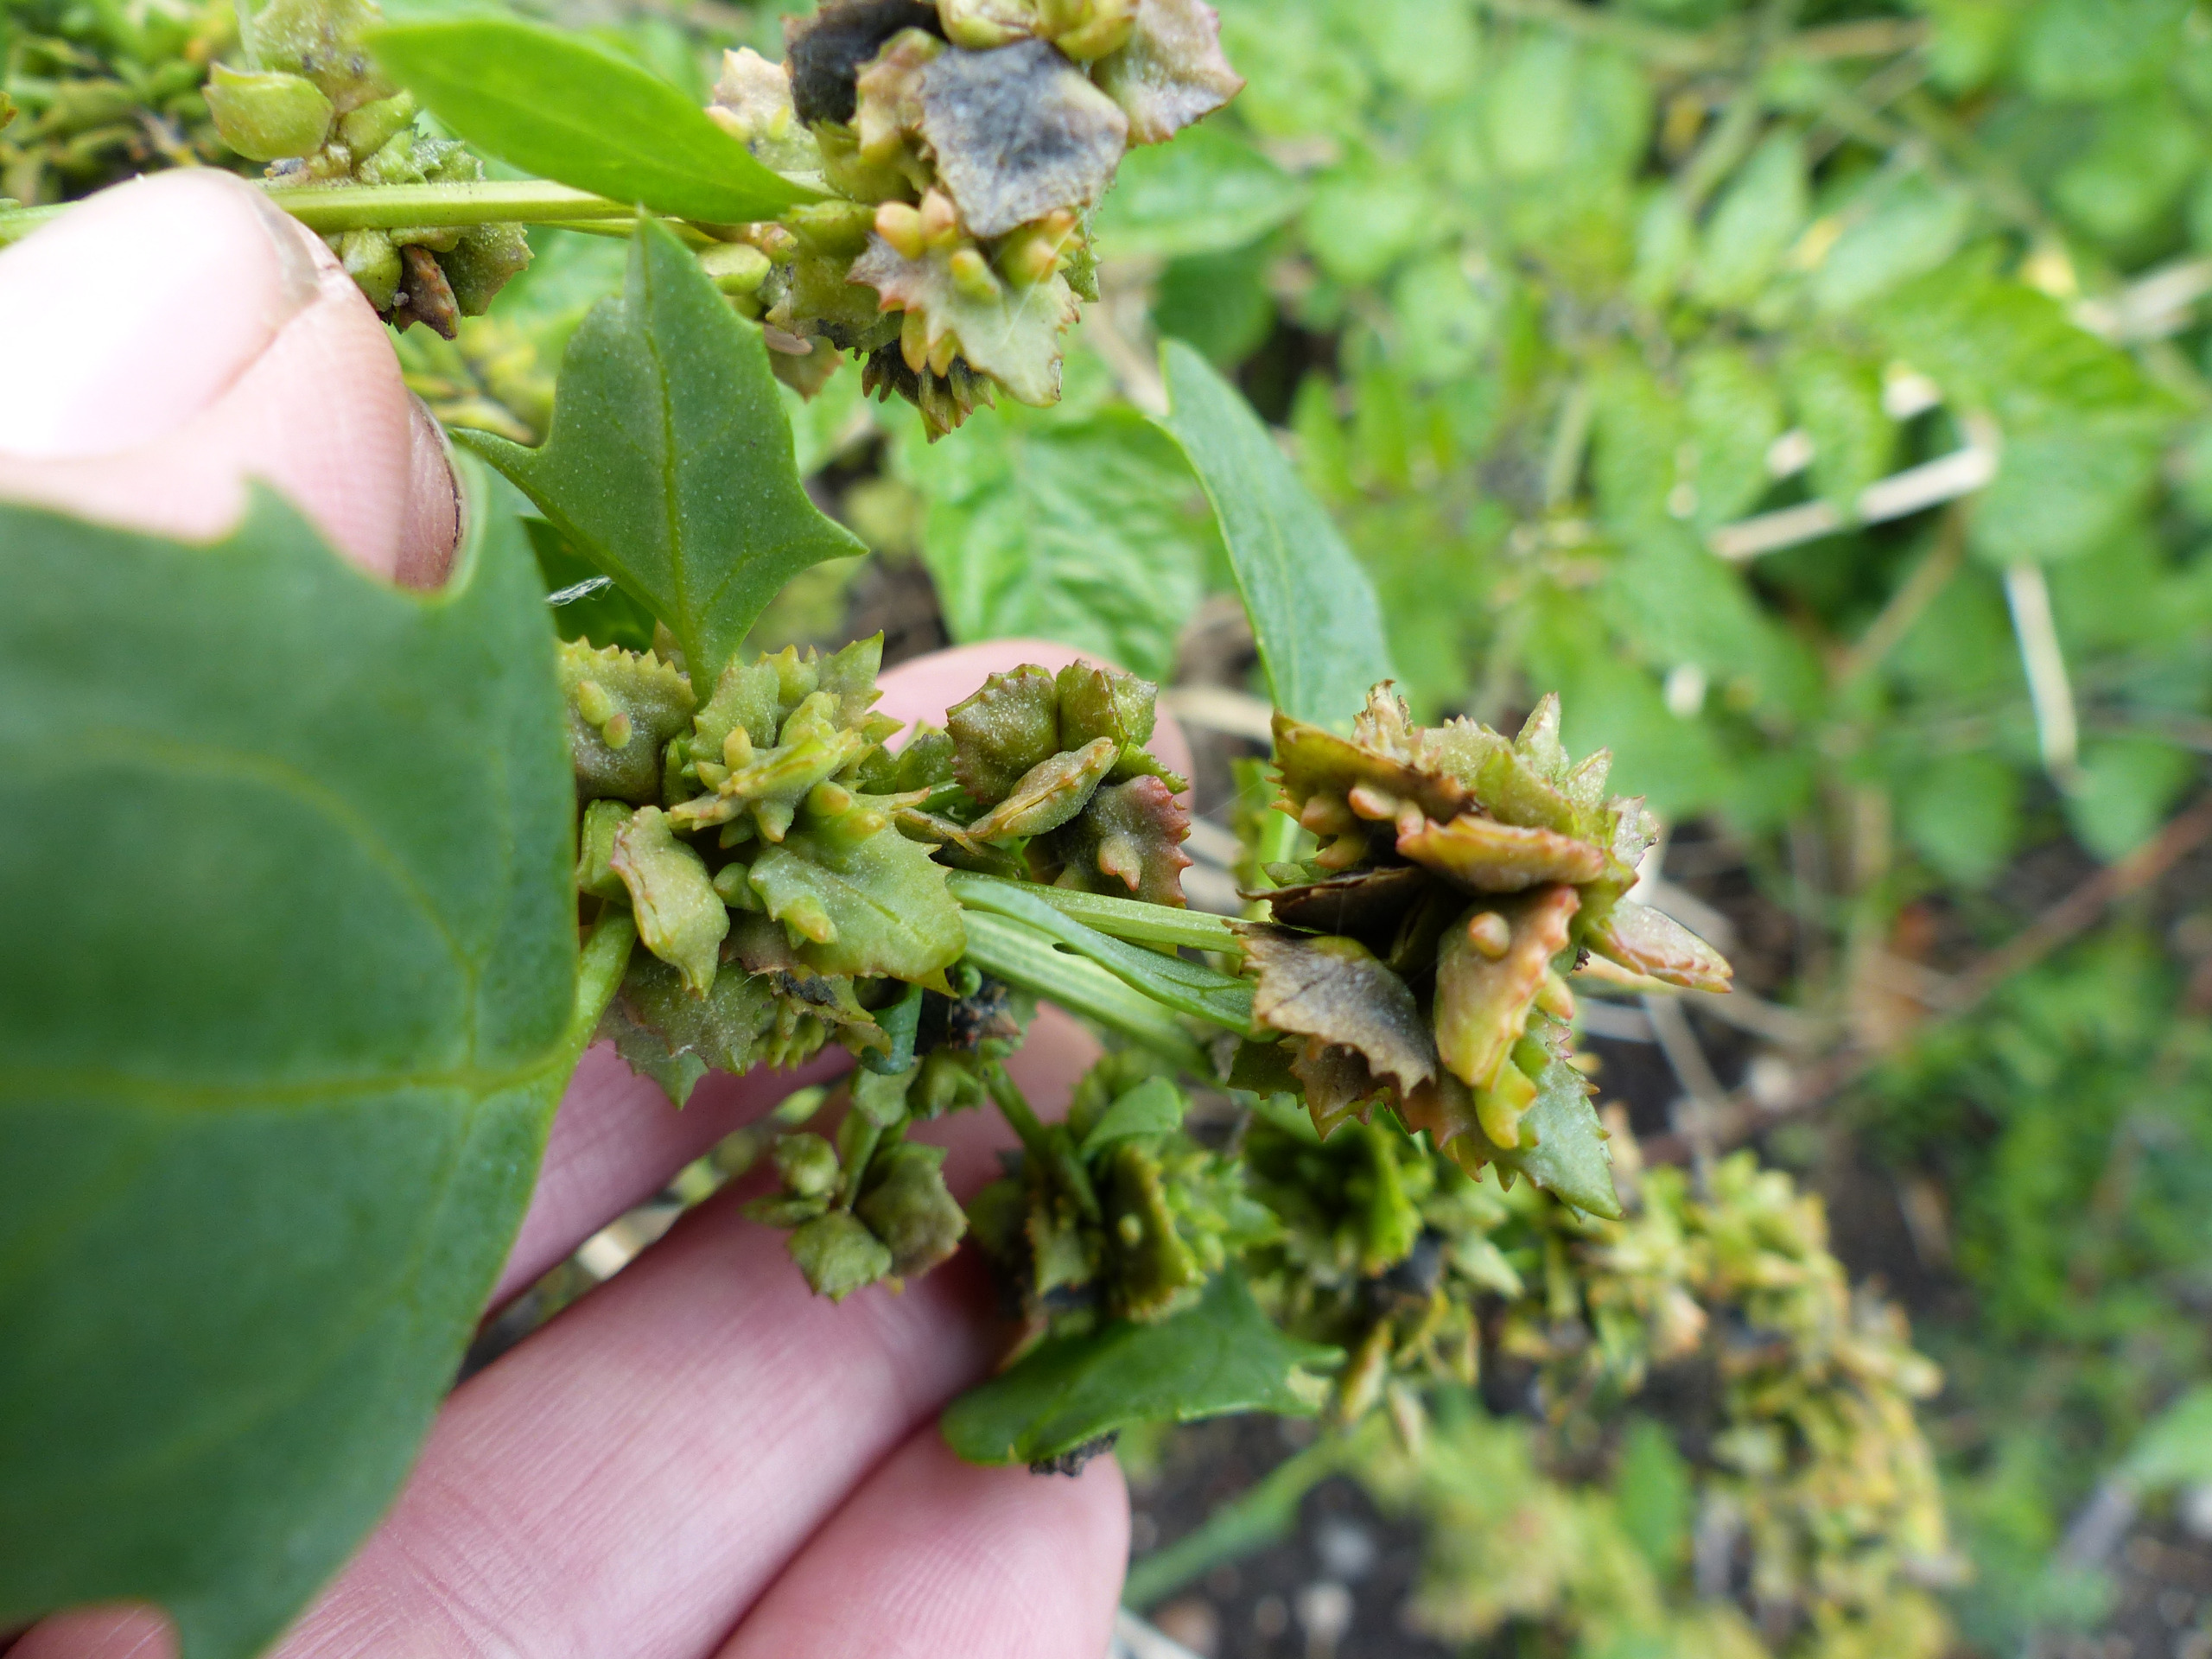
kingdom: Plantae
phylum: Tracheophyta
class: Magnoliopsida
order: Caryophyllales
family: Amaranthaceae
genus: Atriplex
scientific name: Atriplex glabriuscula
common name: Tykbladet mælde
